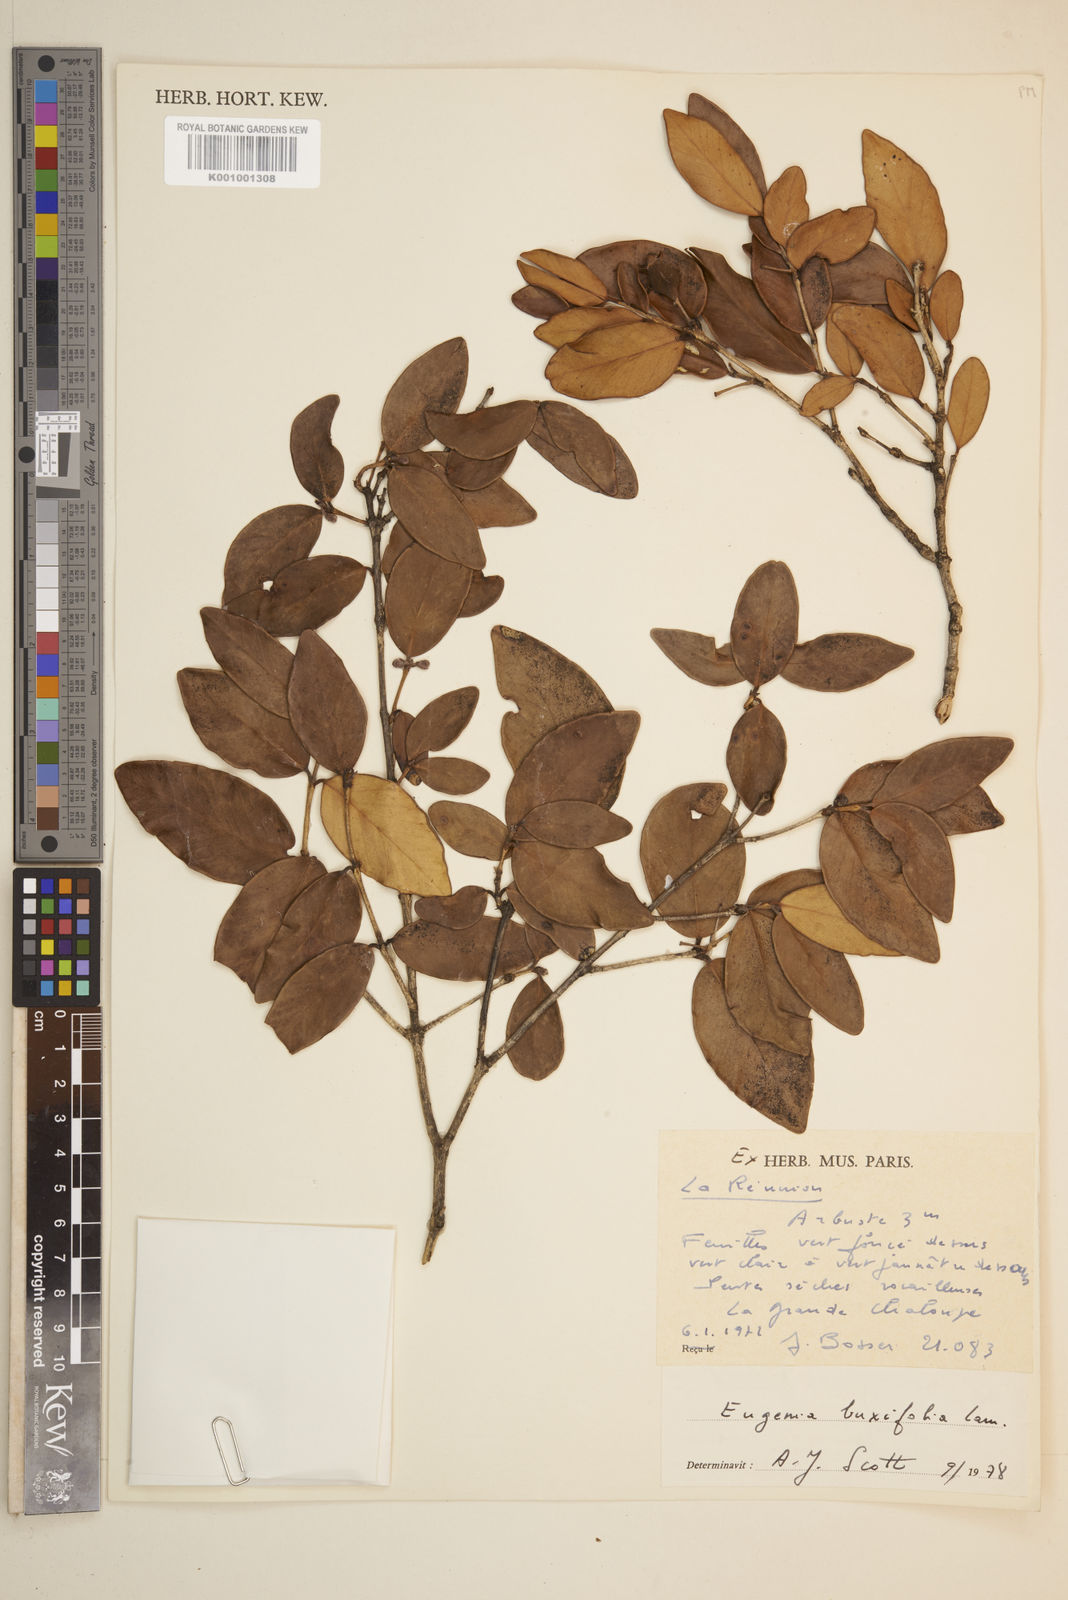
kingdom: Plantae
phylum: Tracheophyta
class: Magnoliopsida
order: Myrtales
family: Myrtaceae
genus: Eugenia
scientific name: Eugenia buxifolia
